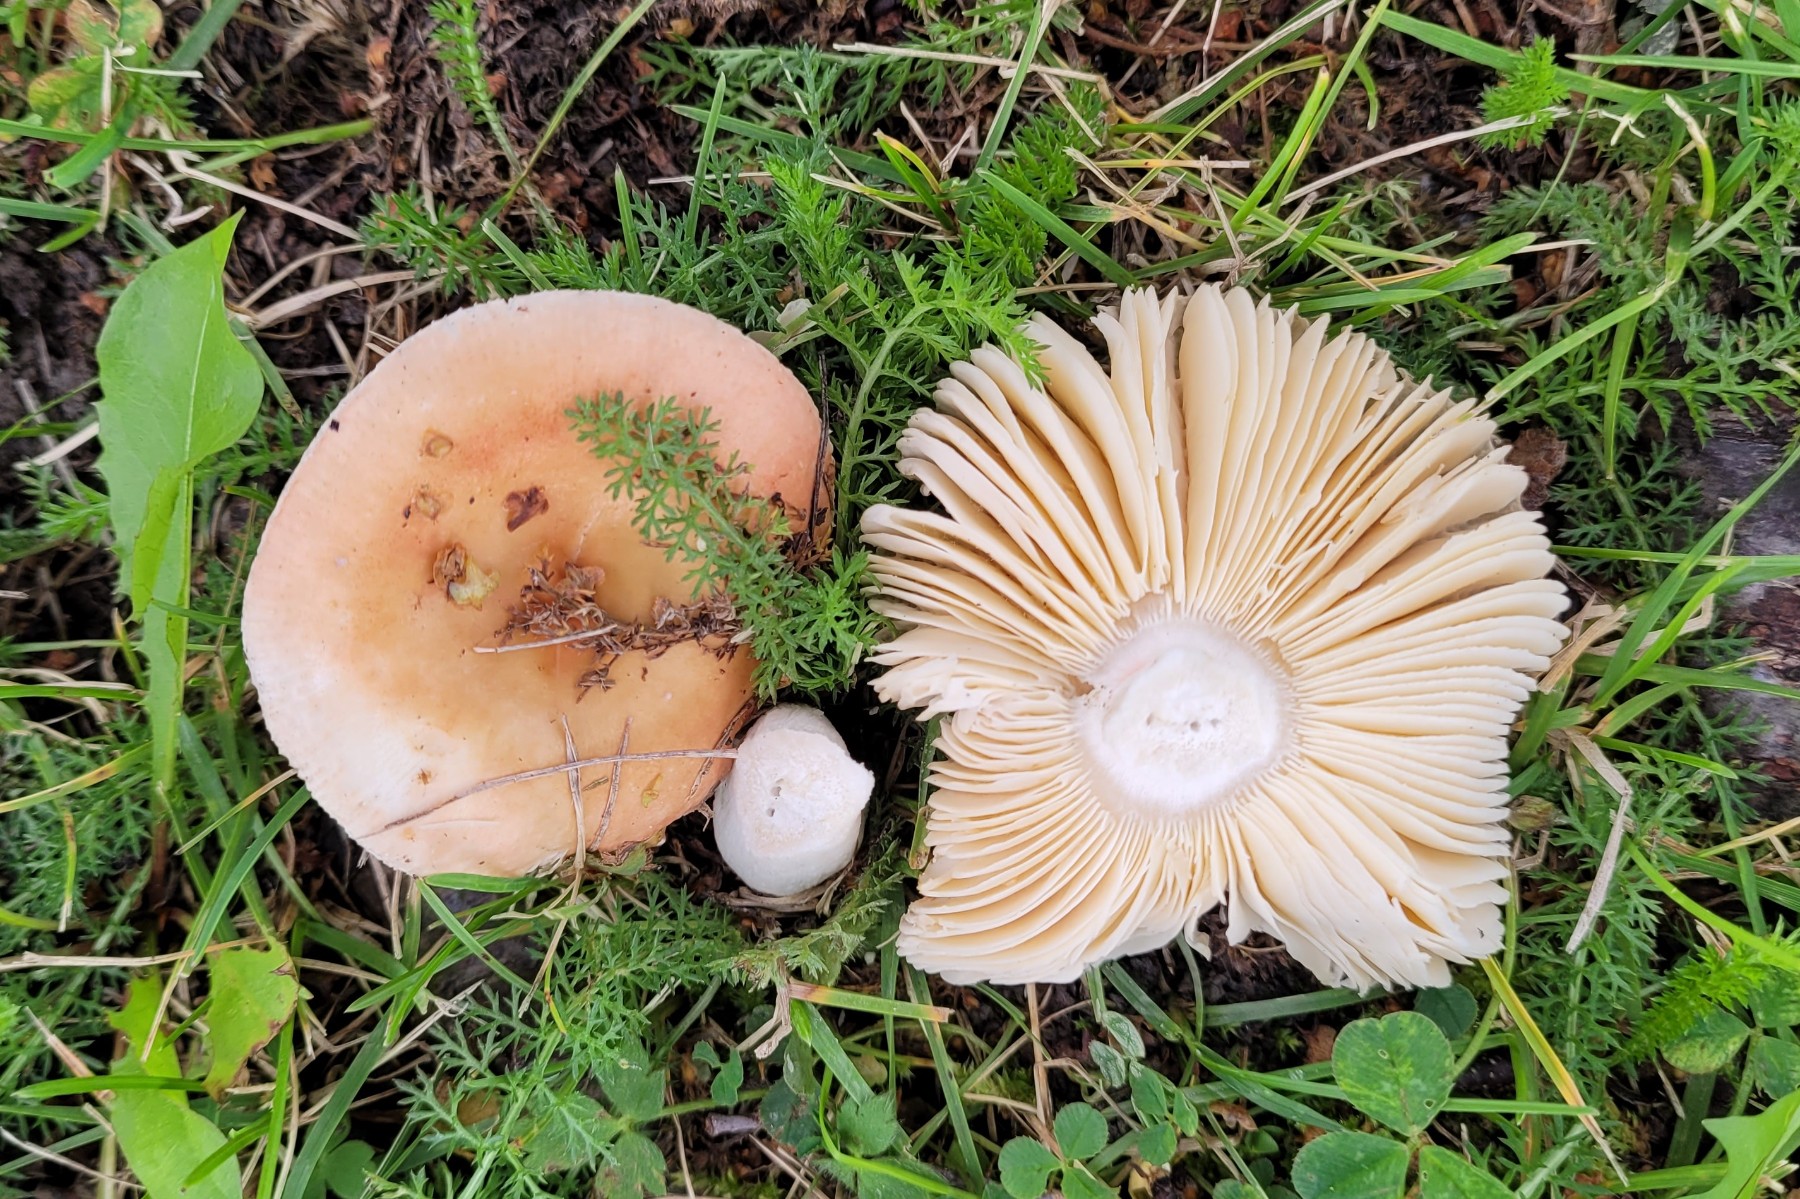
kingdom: Fungi
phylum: Basidiomycota
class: Agaricomycetes
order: Russulales
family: Russulaceae
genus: Russula
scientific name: Russula versicolor
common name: foranderlig skørhat
